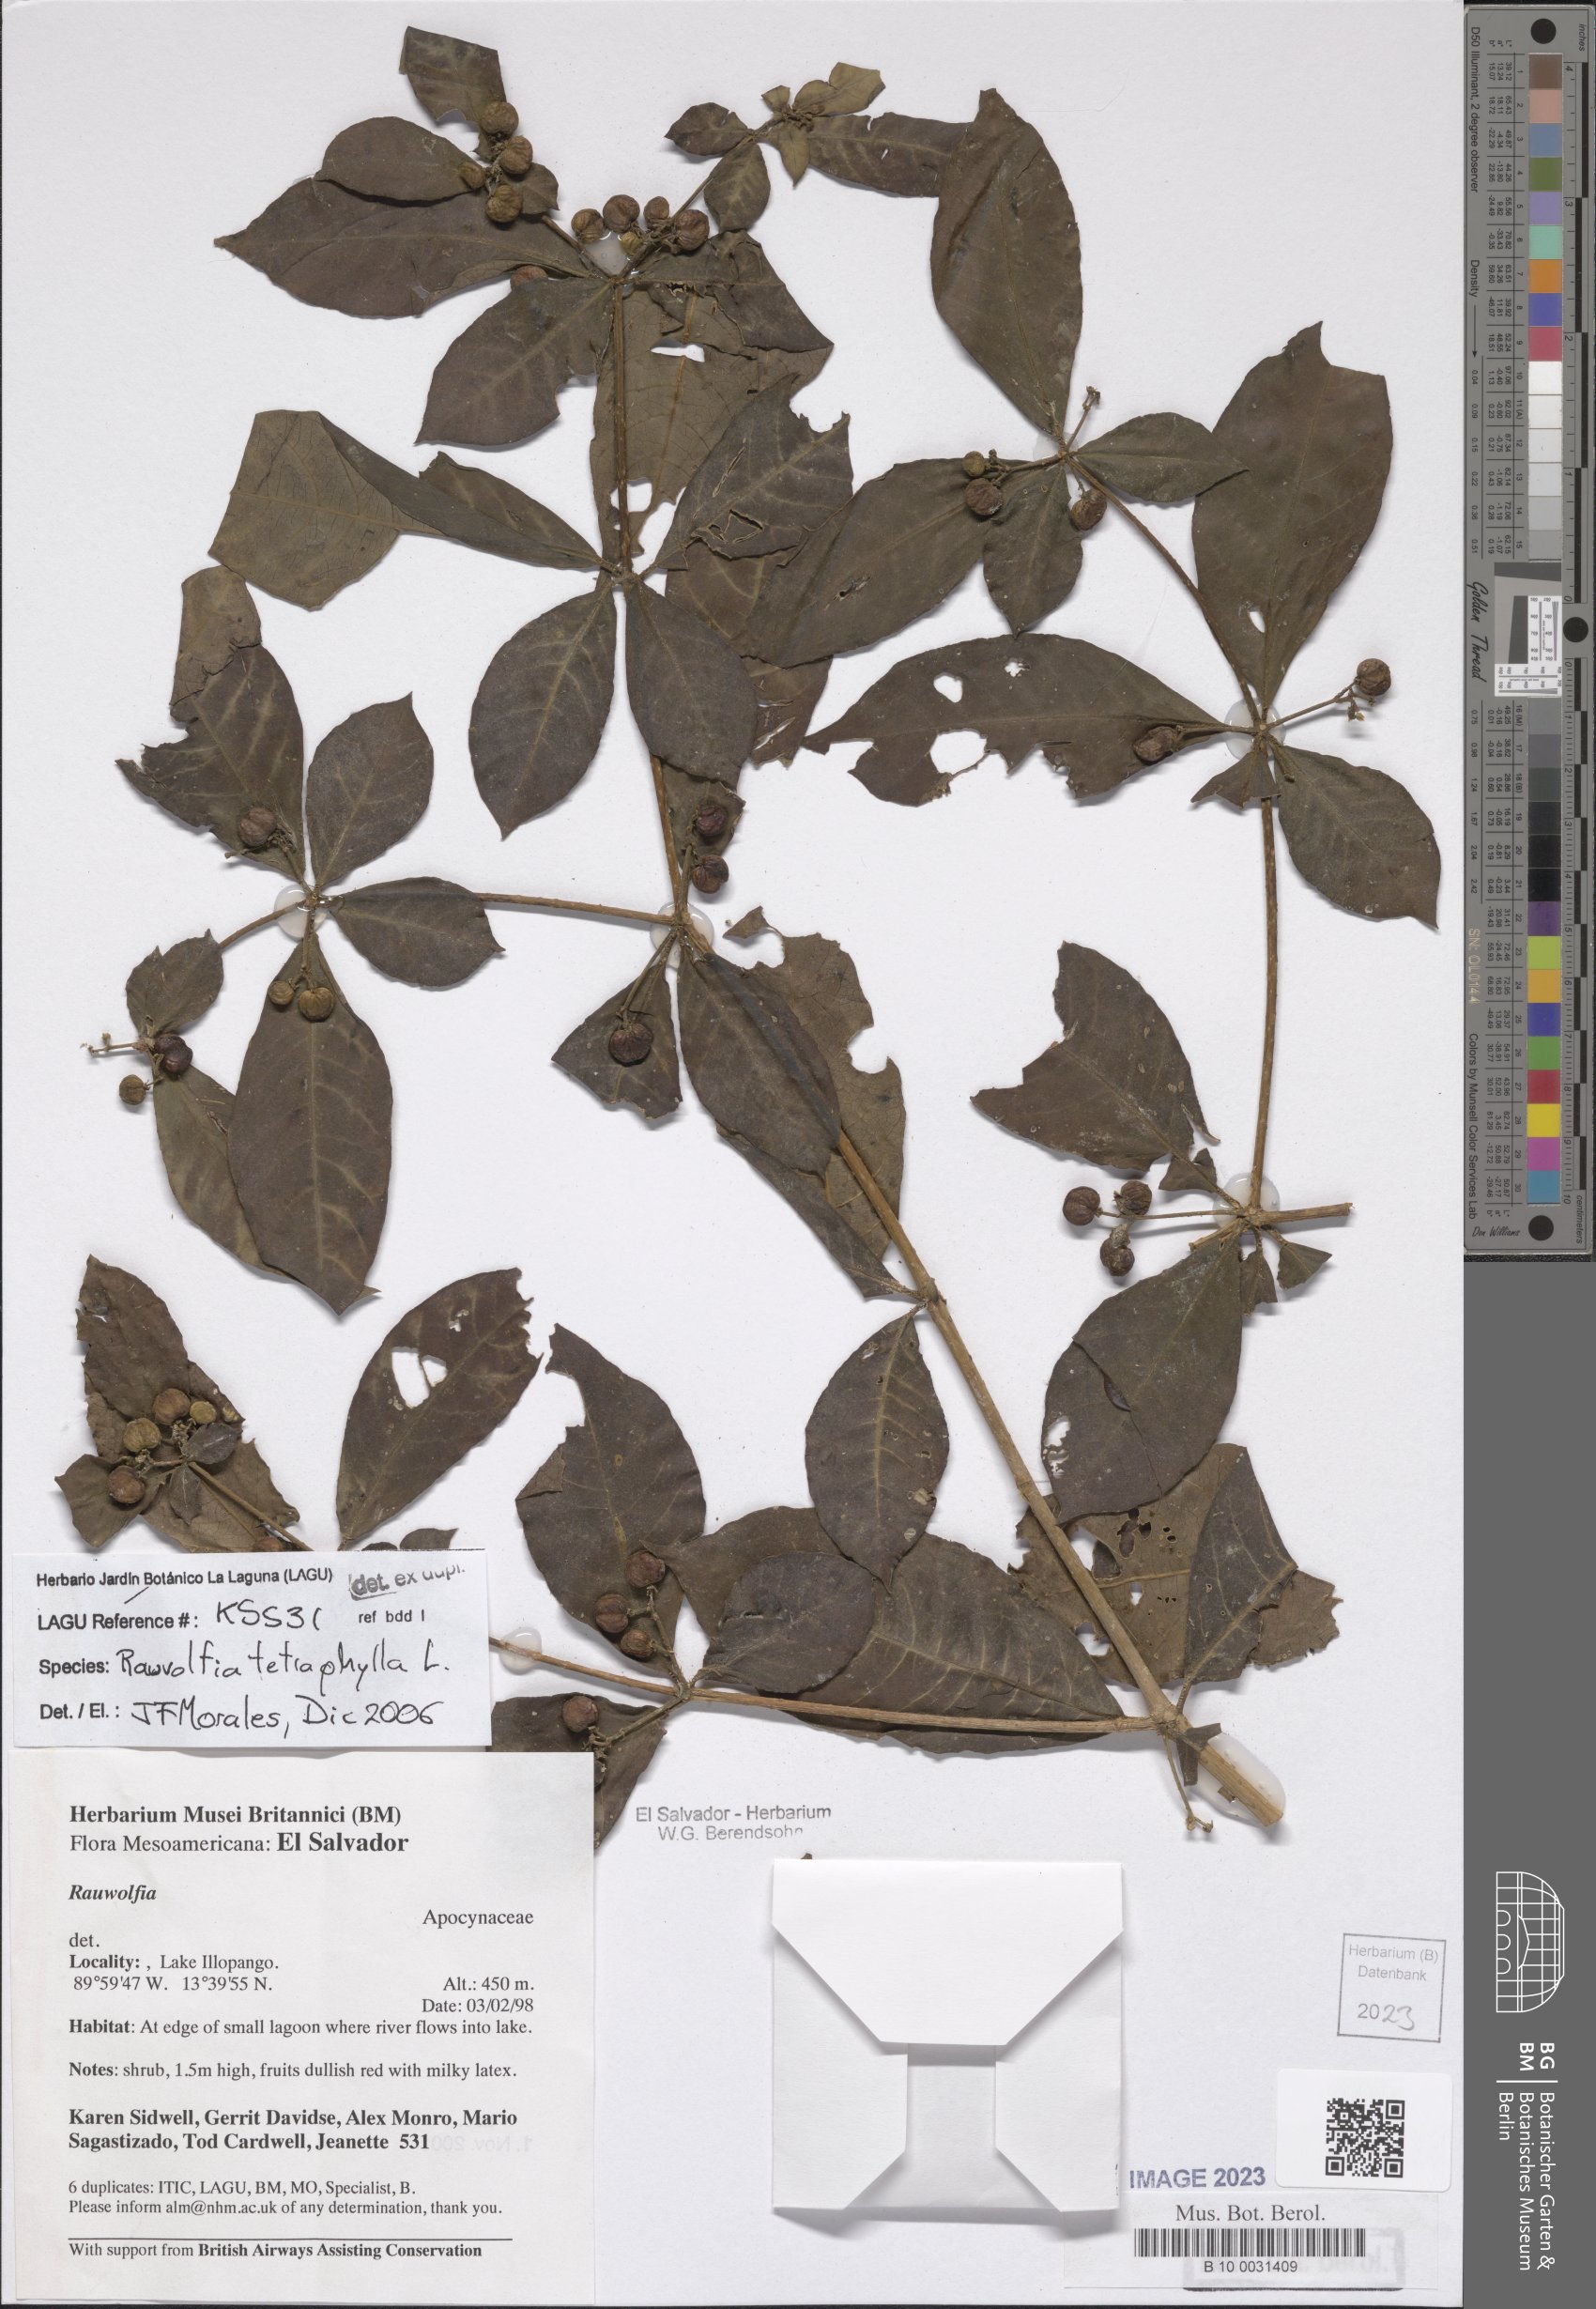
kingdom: Plantae
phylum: Tracheophyta
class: Magnoliopsida
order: Gentianales
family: Apocynaceae
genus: Rauvolfia
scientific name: Rauvolfia tetraphylla
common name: Four-leaf devil-pepper
